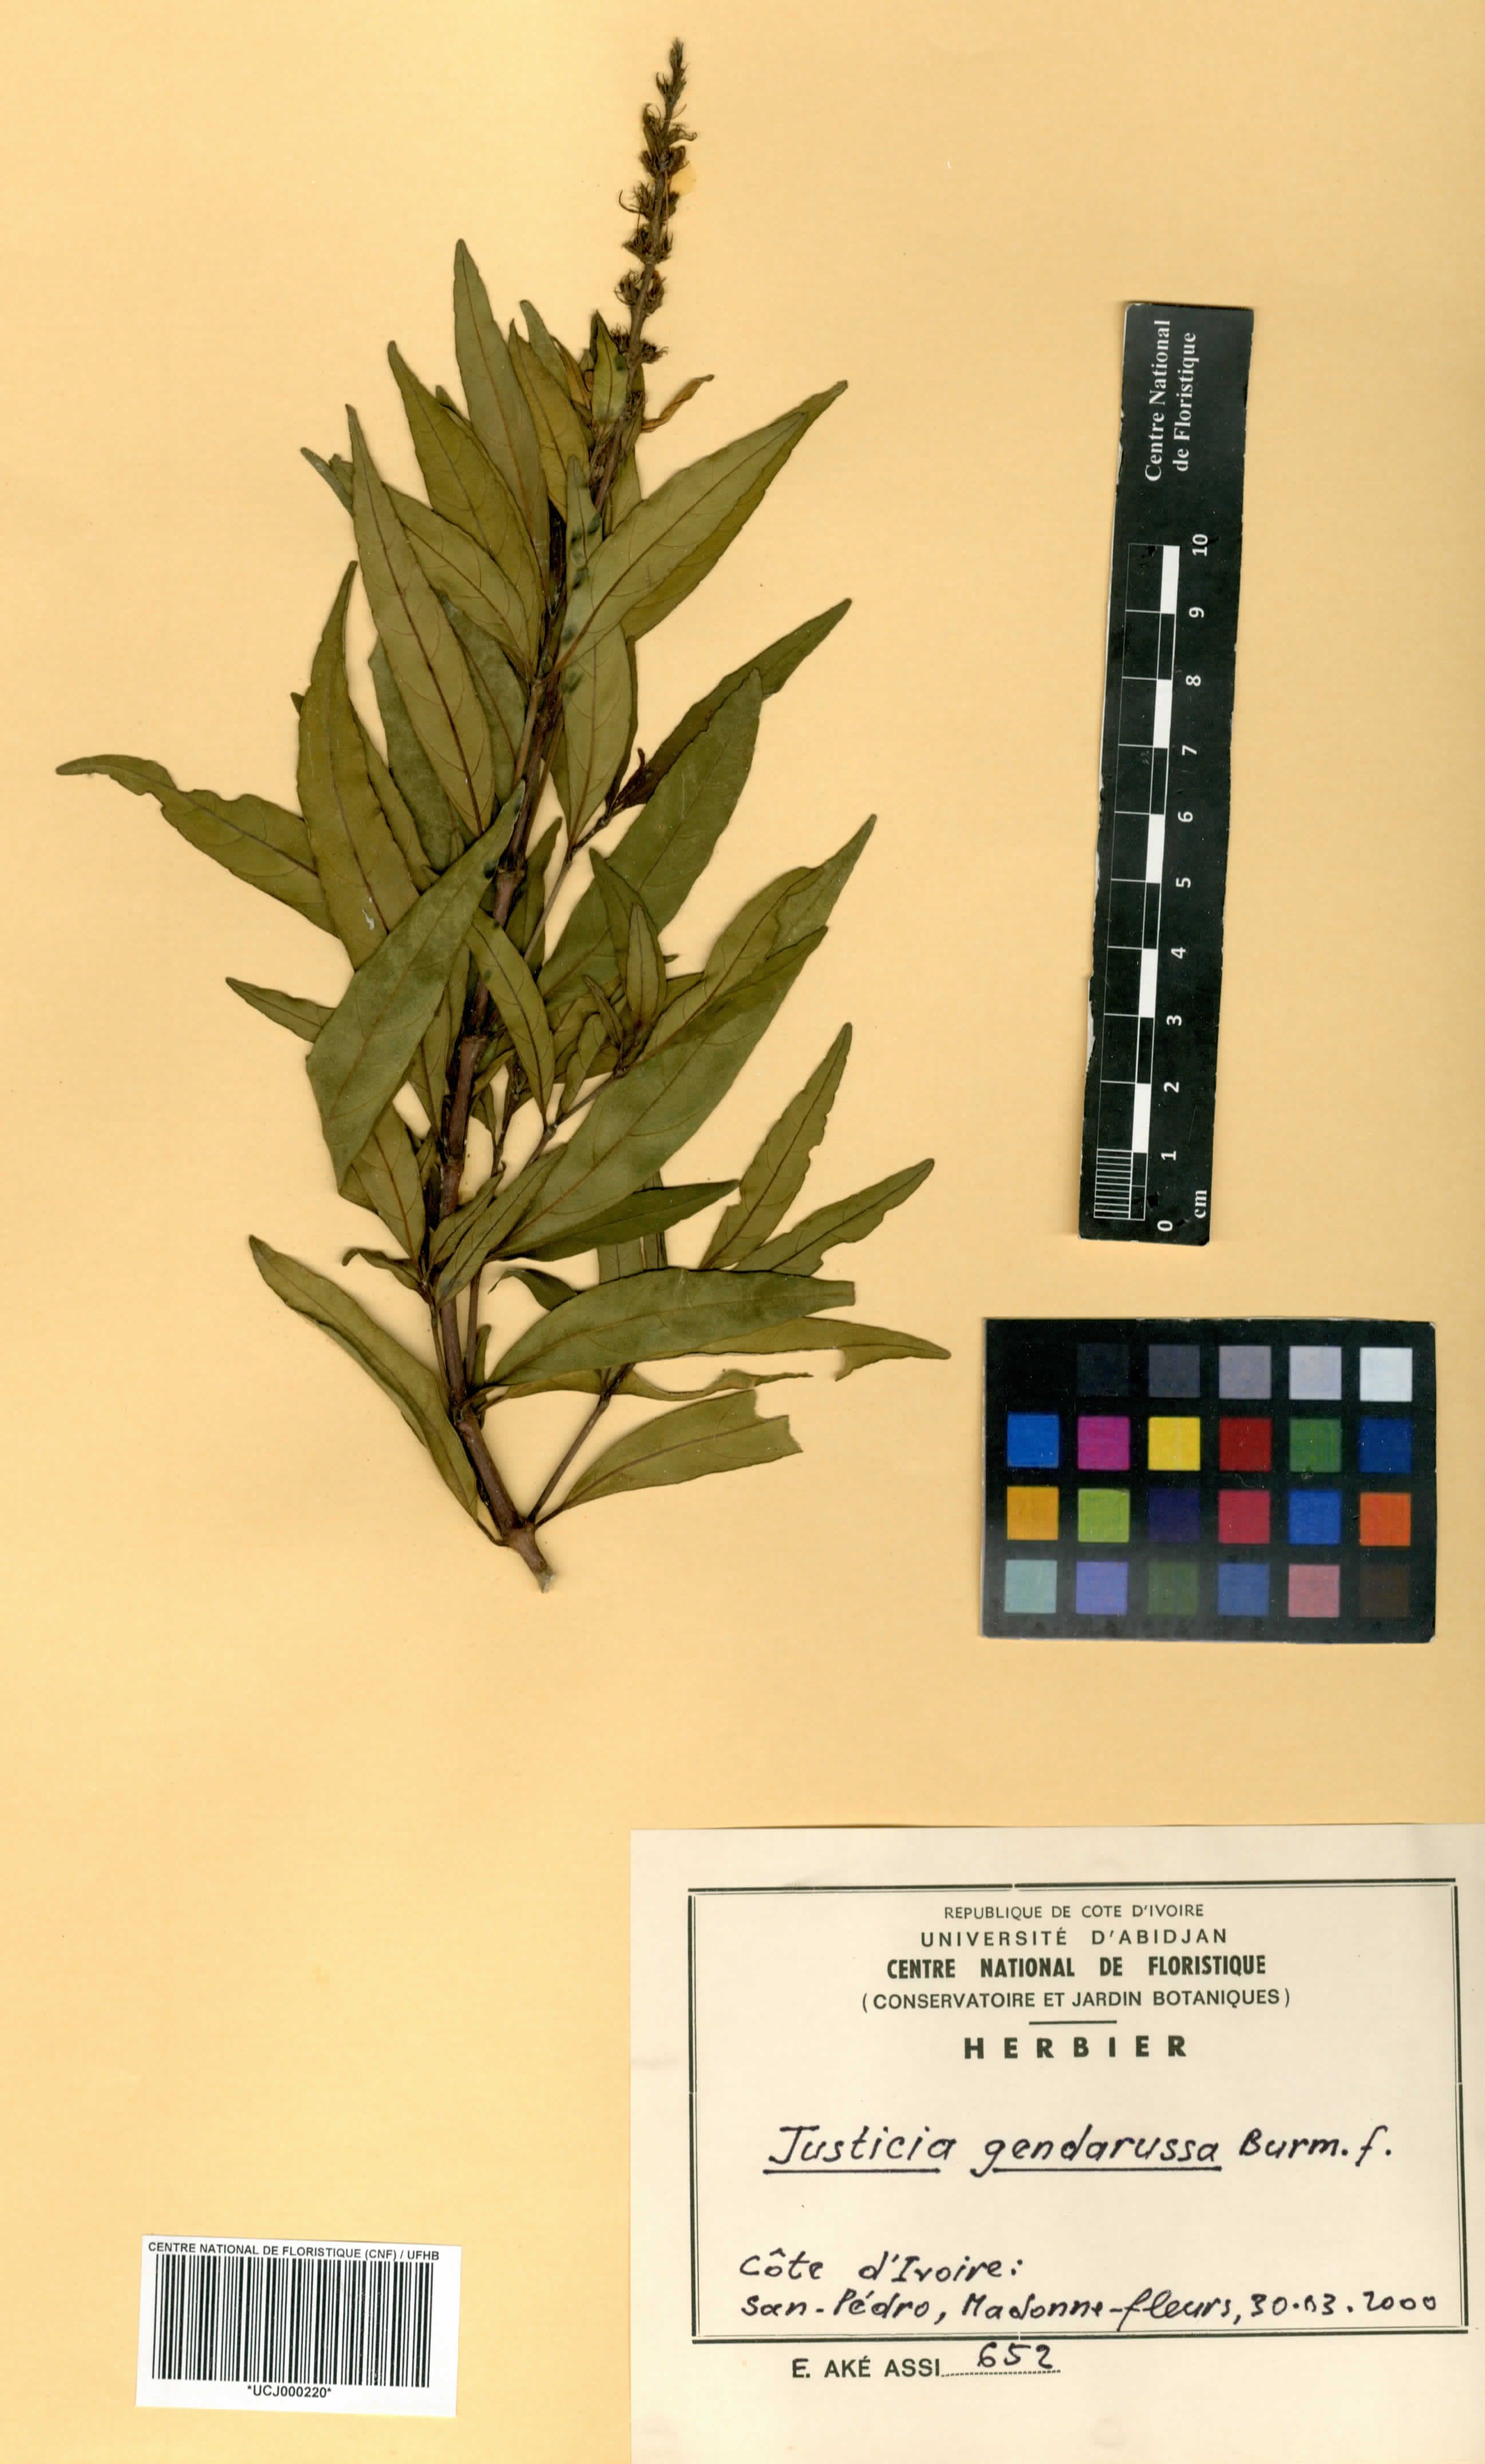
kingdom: Plantae
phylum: Tracheophyta
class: Magnoliopsida
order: Lamiales
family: Acanthaceae
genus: Justicia
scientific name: Justicia gendarussa
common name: Warer willow
